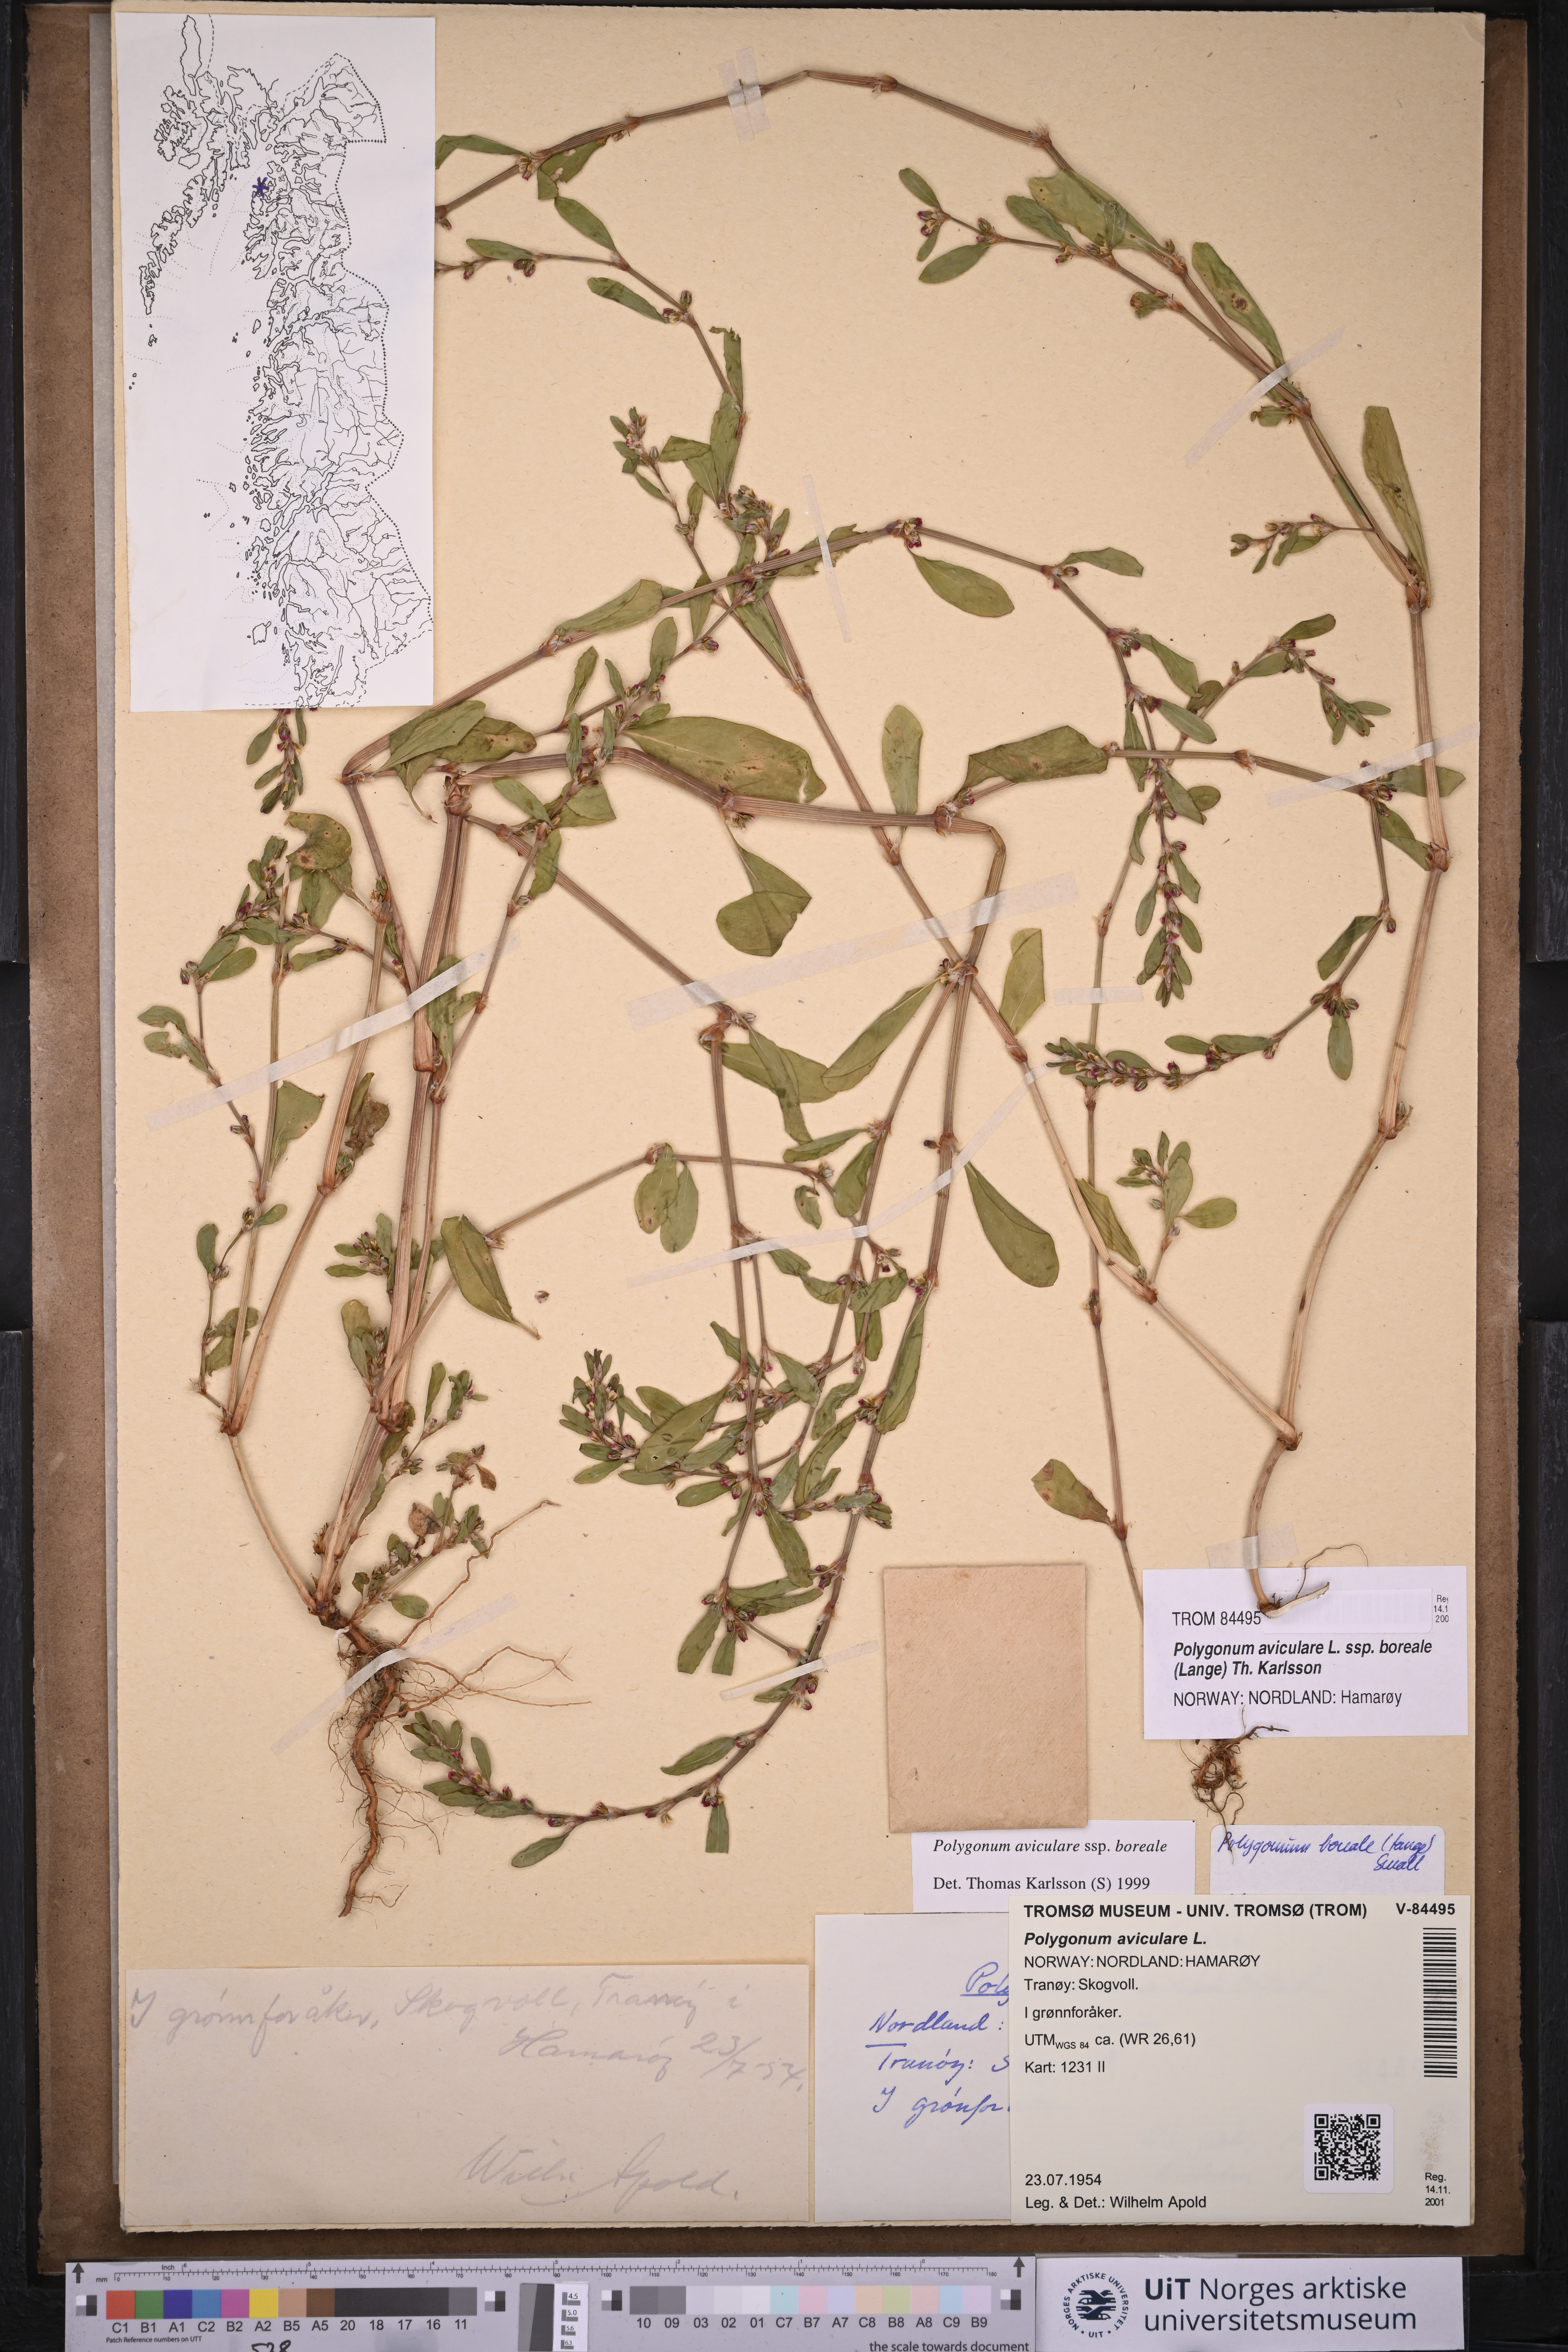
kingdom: Plantae
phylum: Tracheophyta
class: Magnoliopsida
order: Caryophyllales
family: Polygonaceae
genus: Polygonum
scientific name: Polygonum boreale
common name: Northern knotgrass
